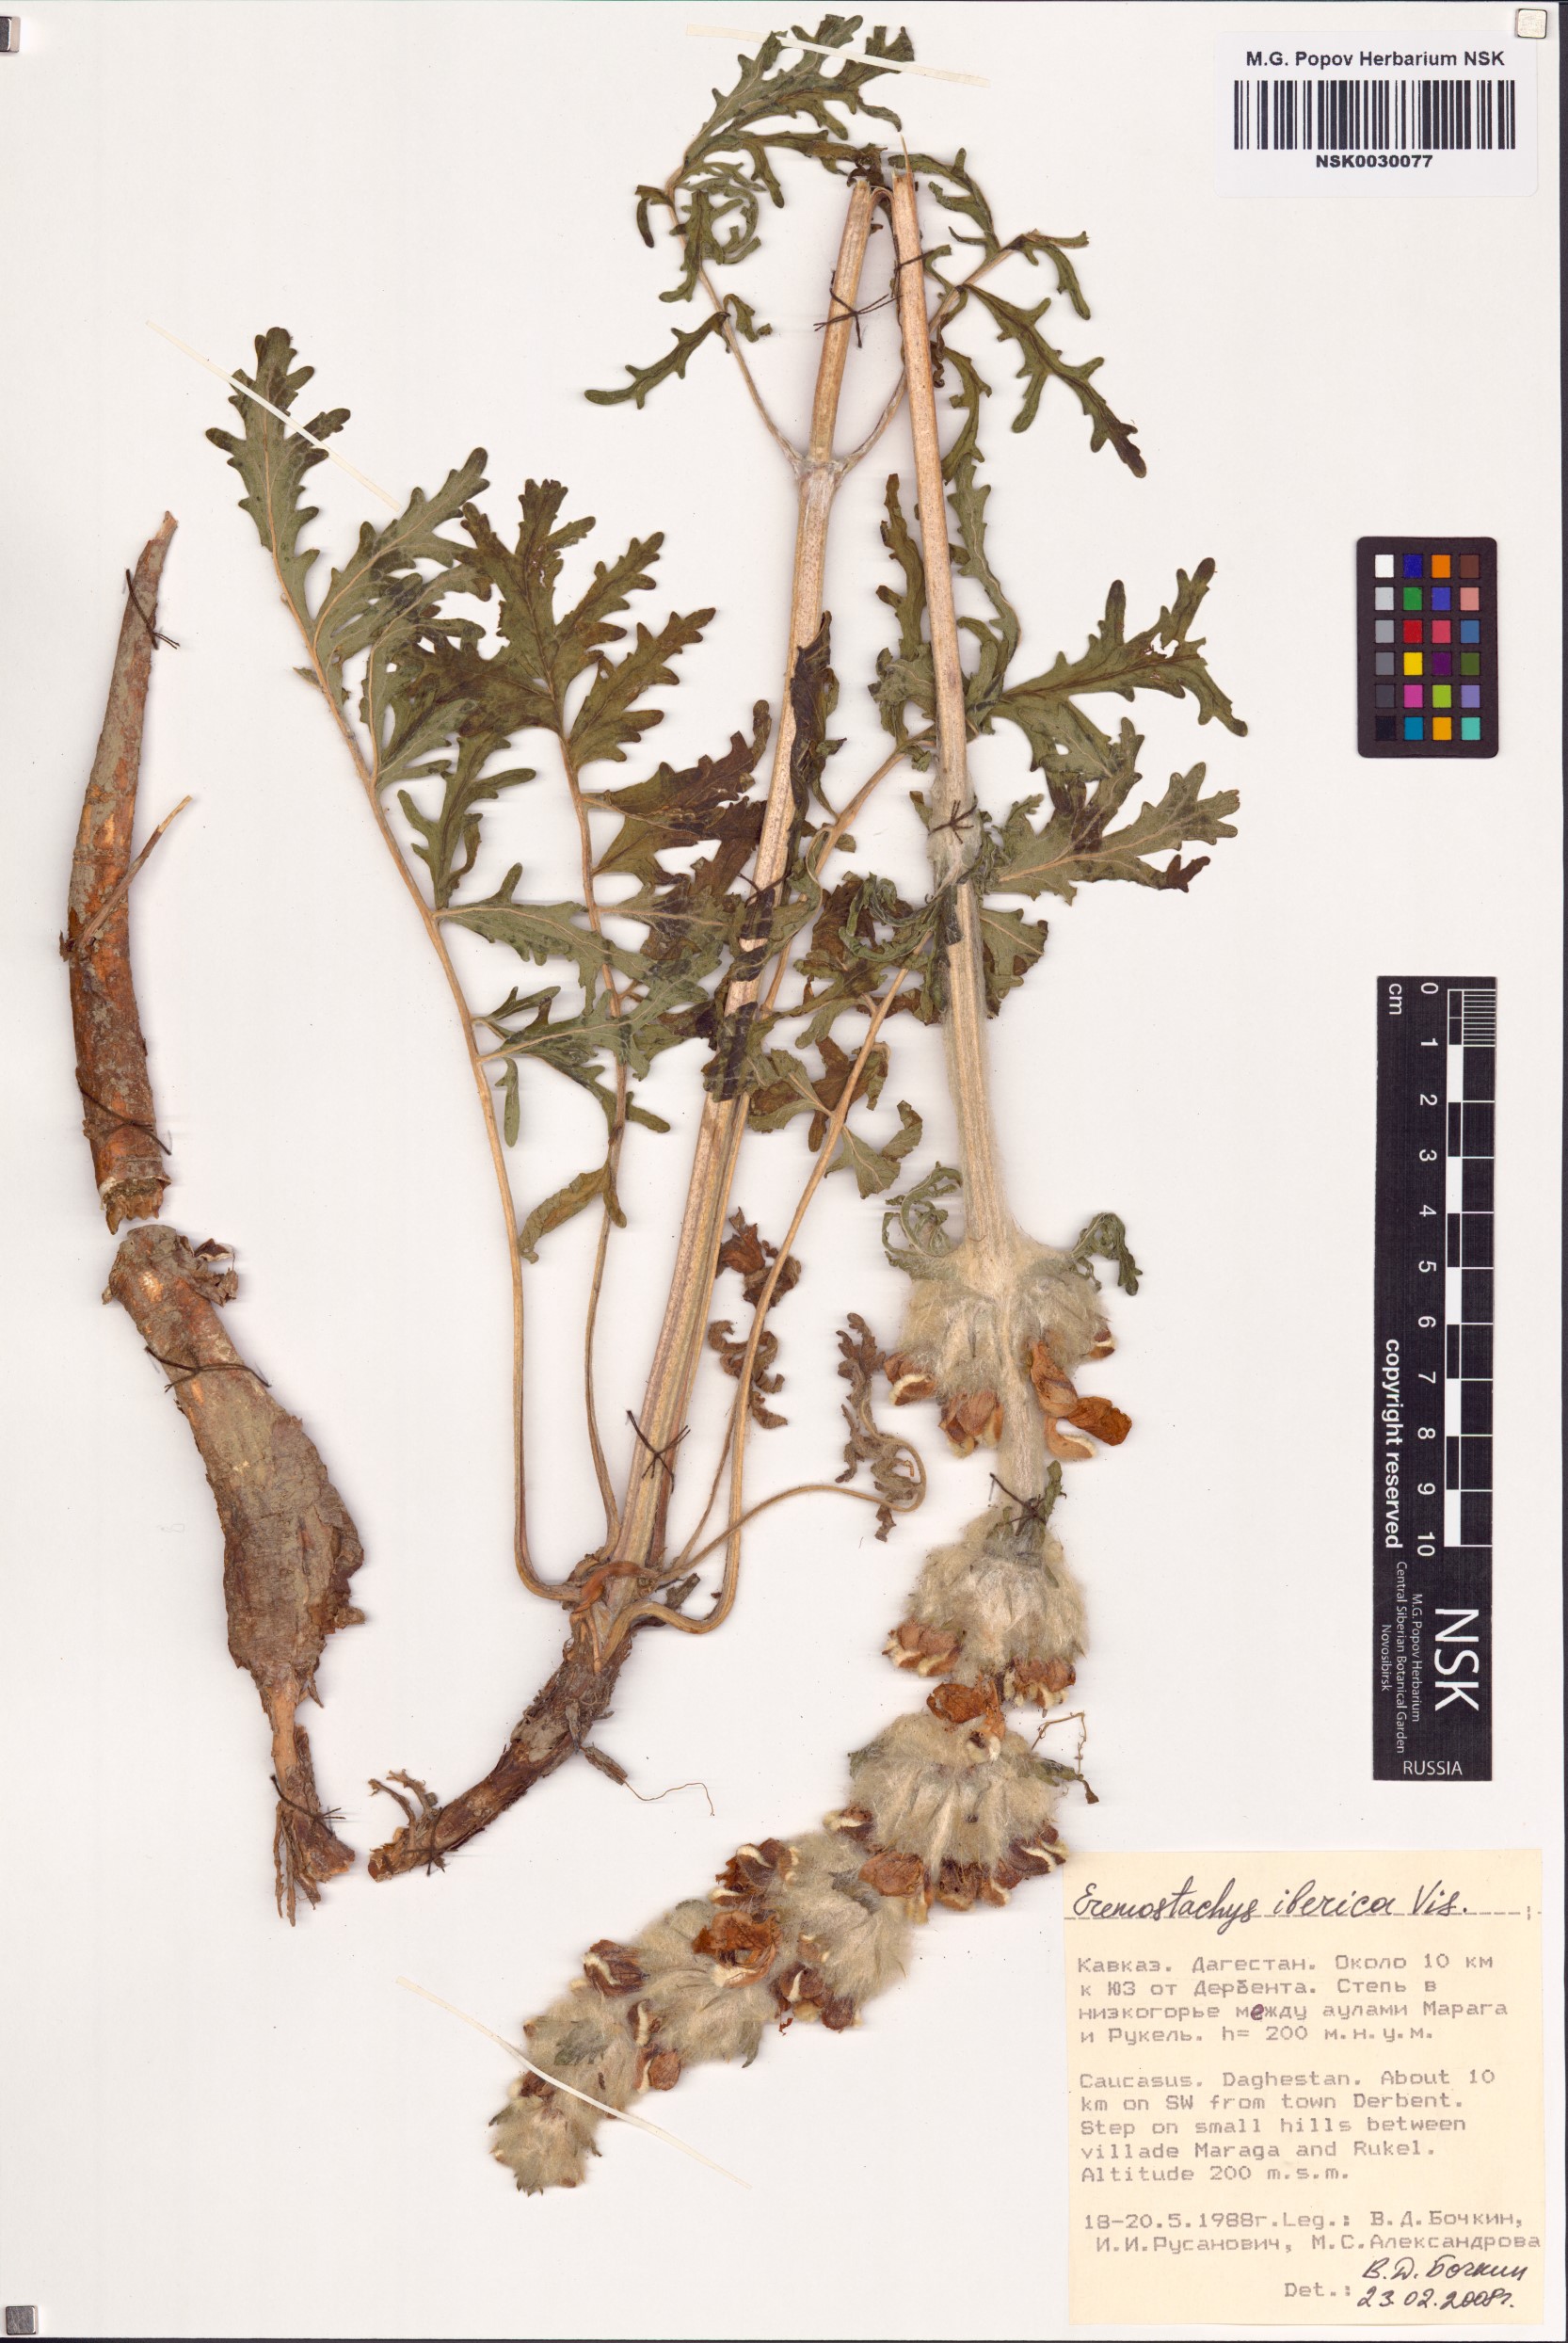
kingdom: Plantae
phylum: Tracheophyta
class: Magnoliopsida
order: Lamiales
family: Lamiaceae
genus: Phlomoides
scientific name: Phlomoides laciniata
